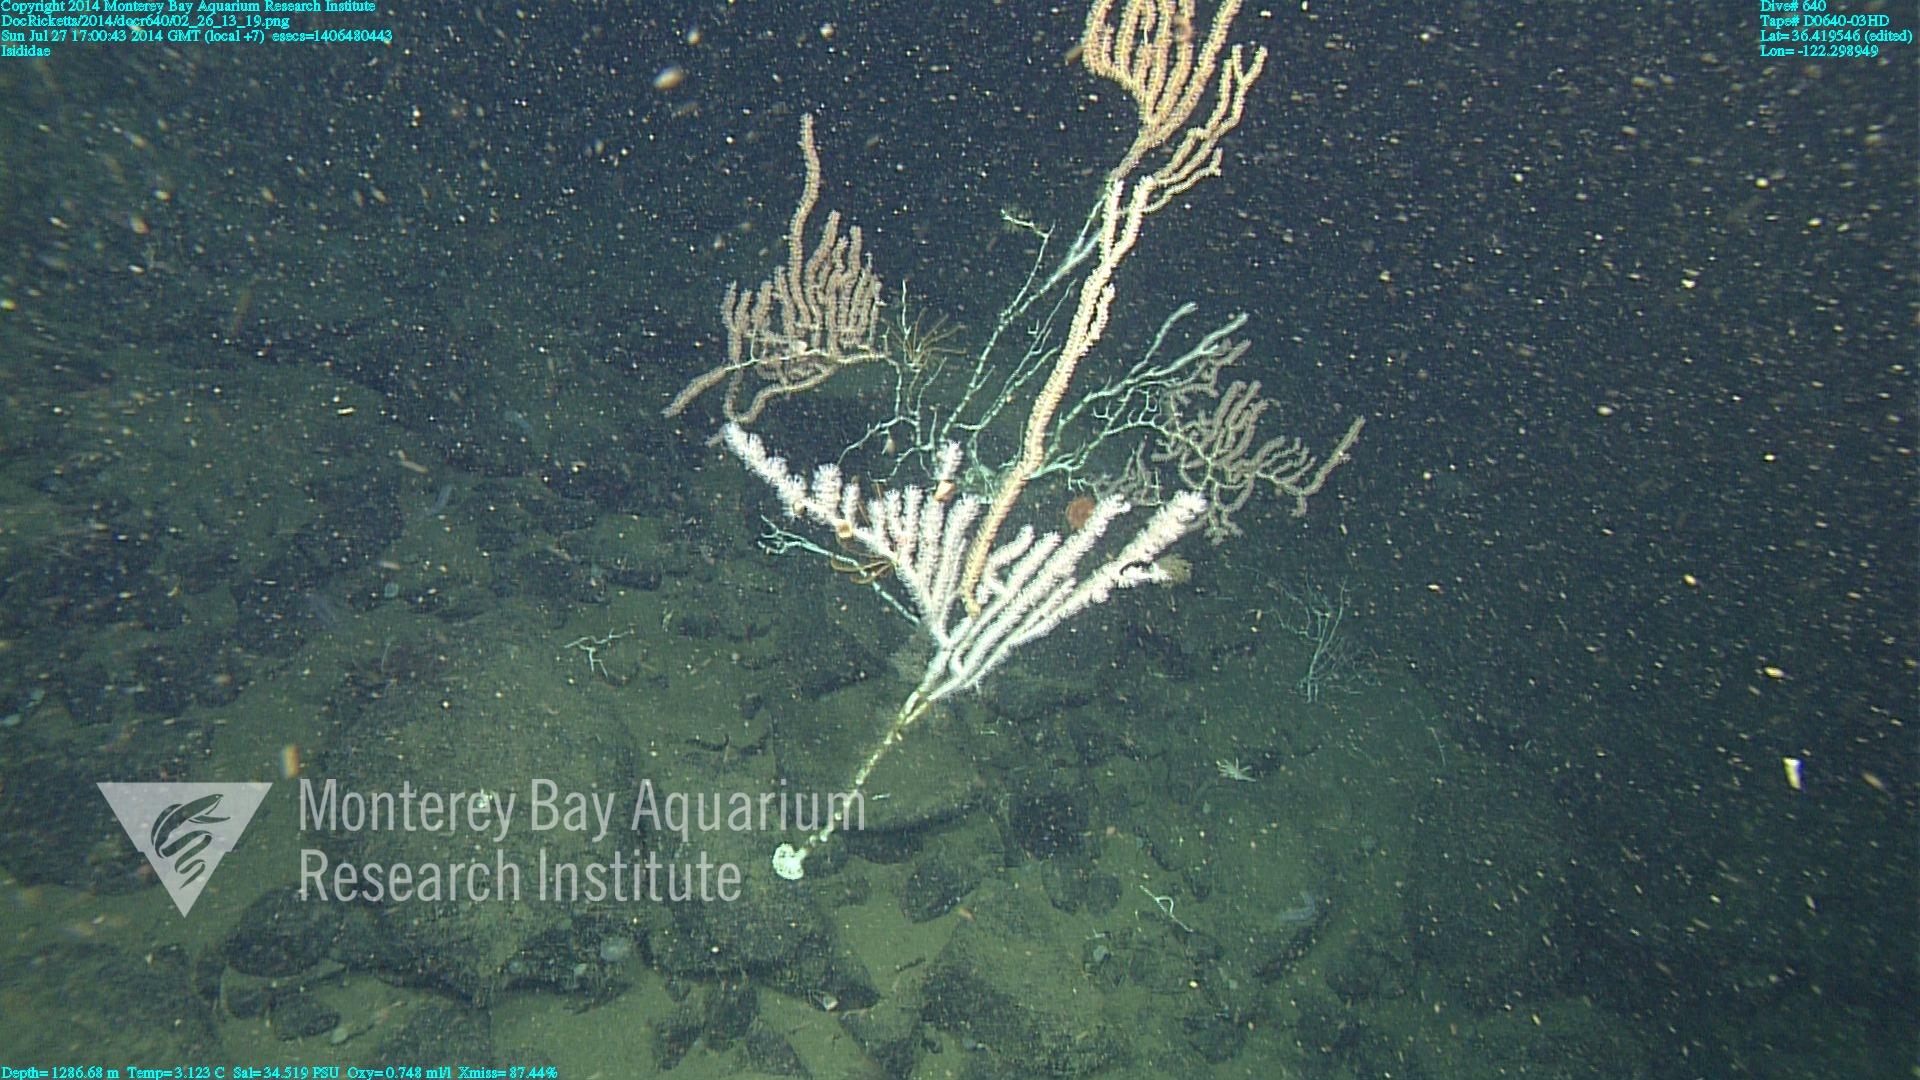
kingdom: Animalia
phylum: Cnidaria
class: Anthozoa
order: Scleralcyonacea
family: Keratoisididae
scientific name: Keratoisididae
